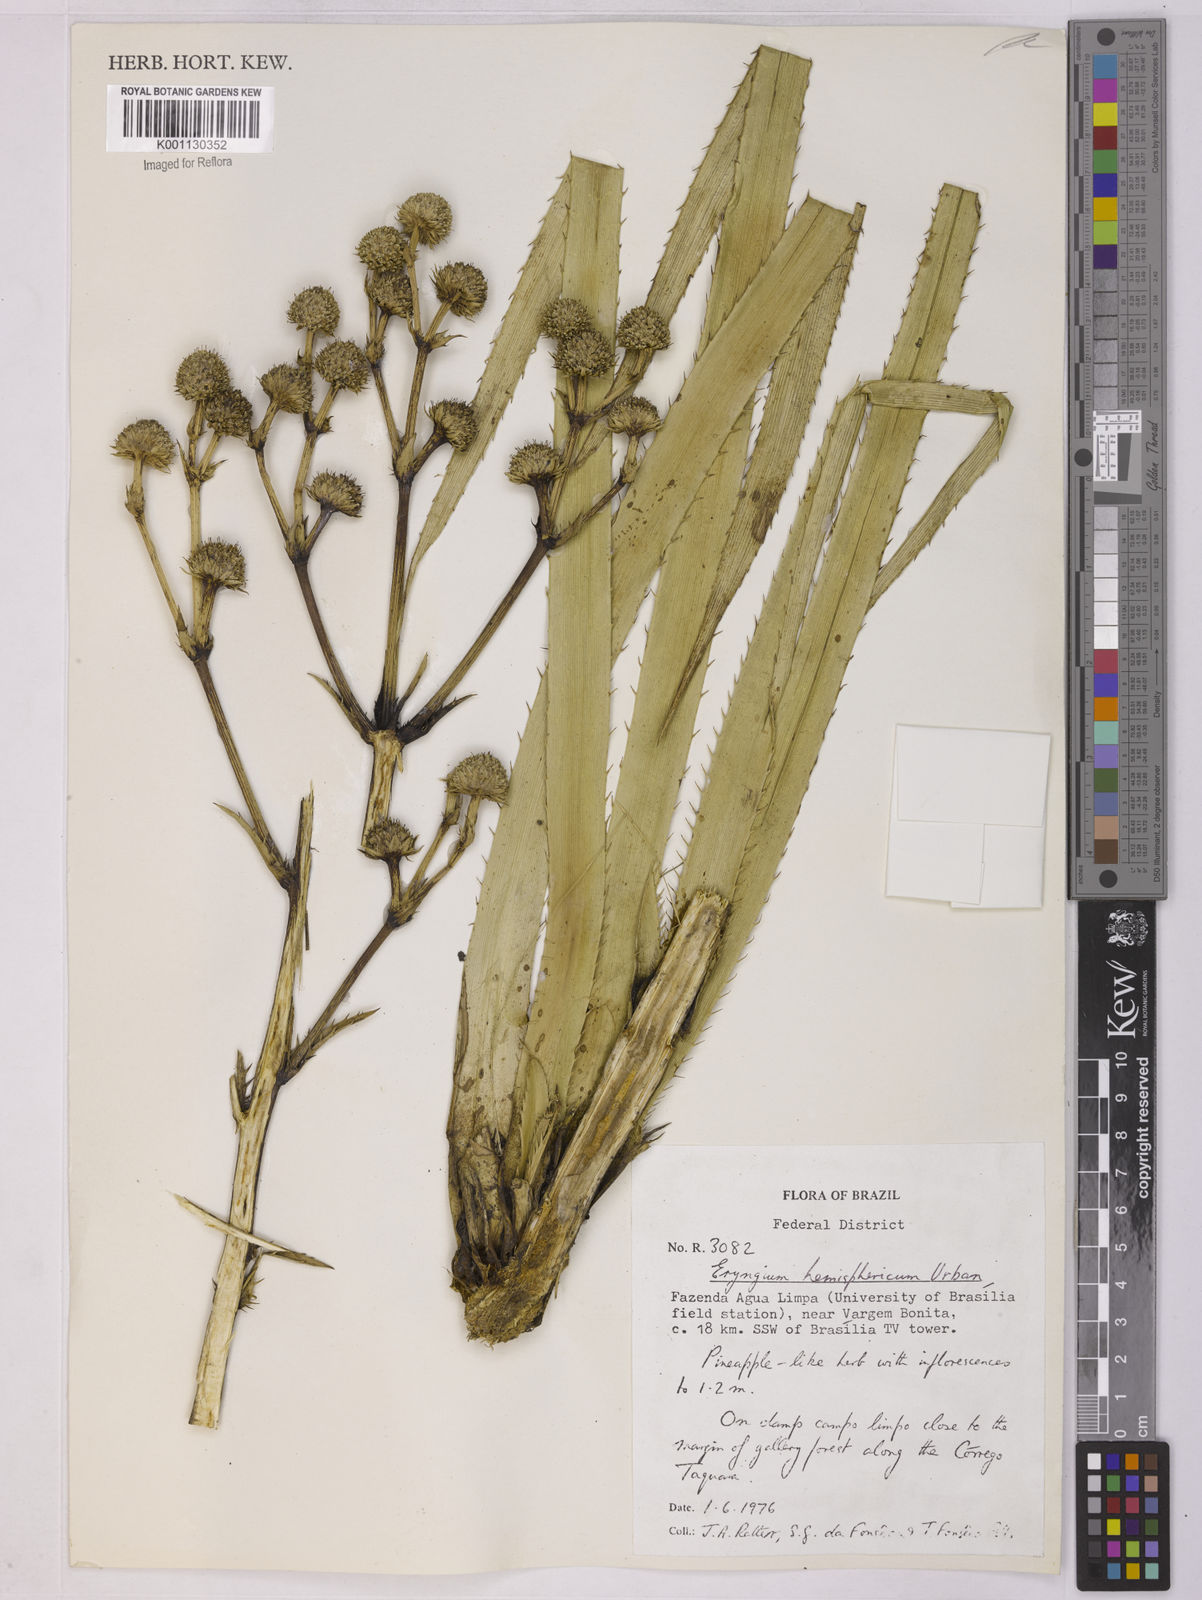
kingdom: Plantae
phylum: Tracheophyta
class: Magnoliopsida
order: Apiales
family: Apiaceae
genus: Eryngium
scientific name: Eryngium hemisphaericum
